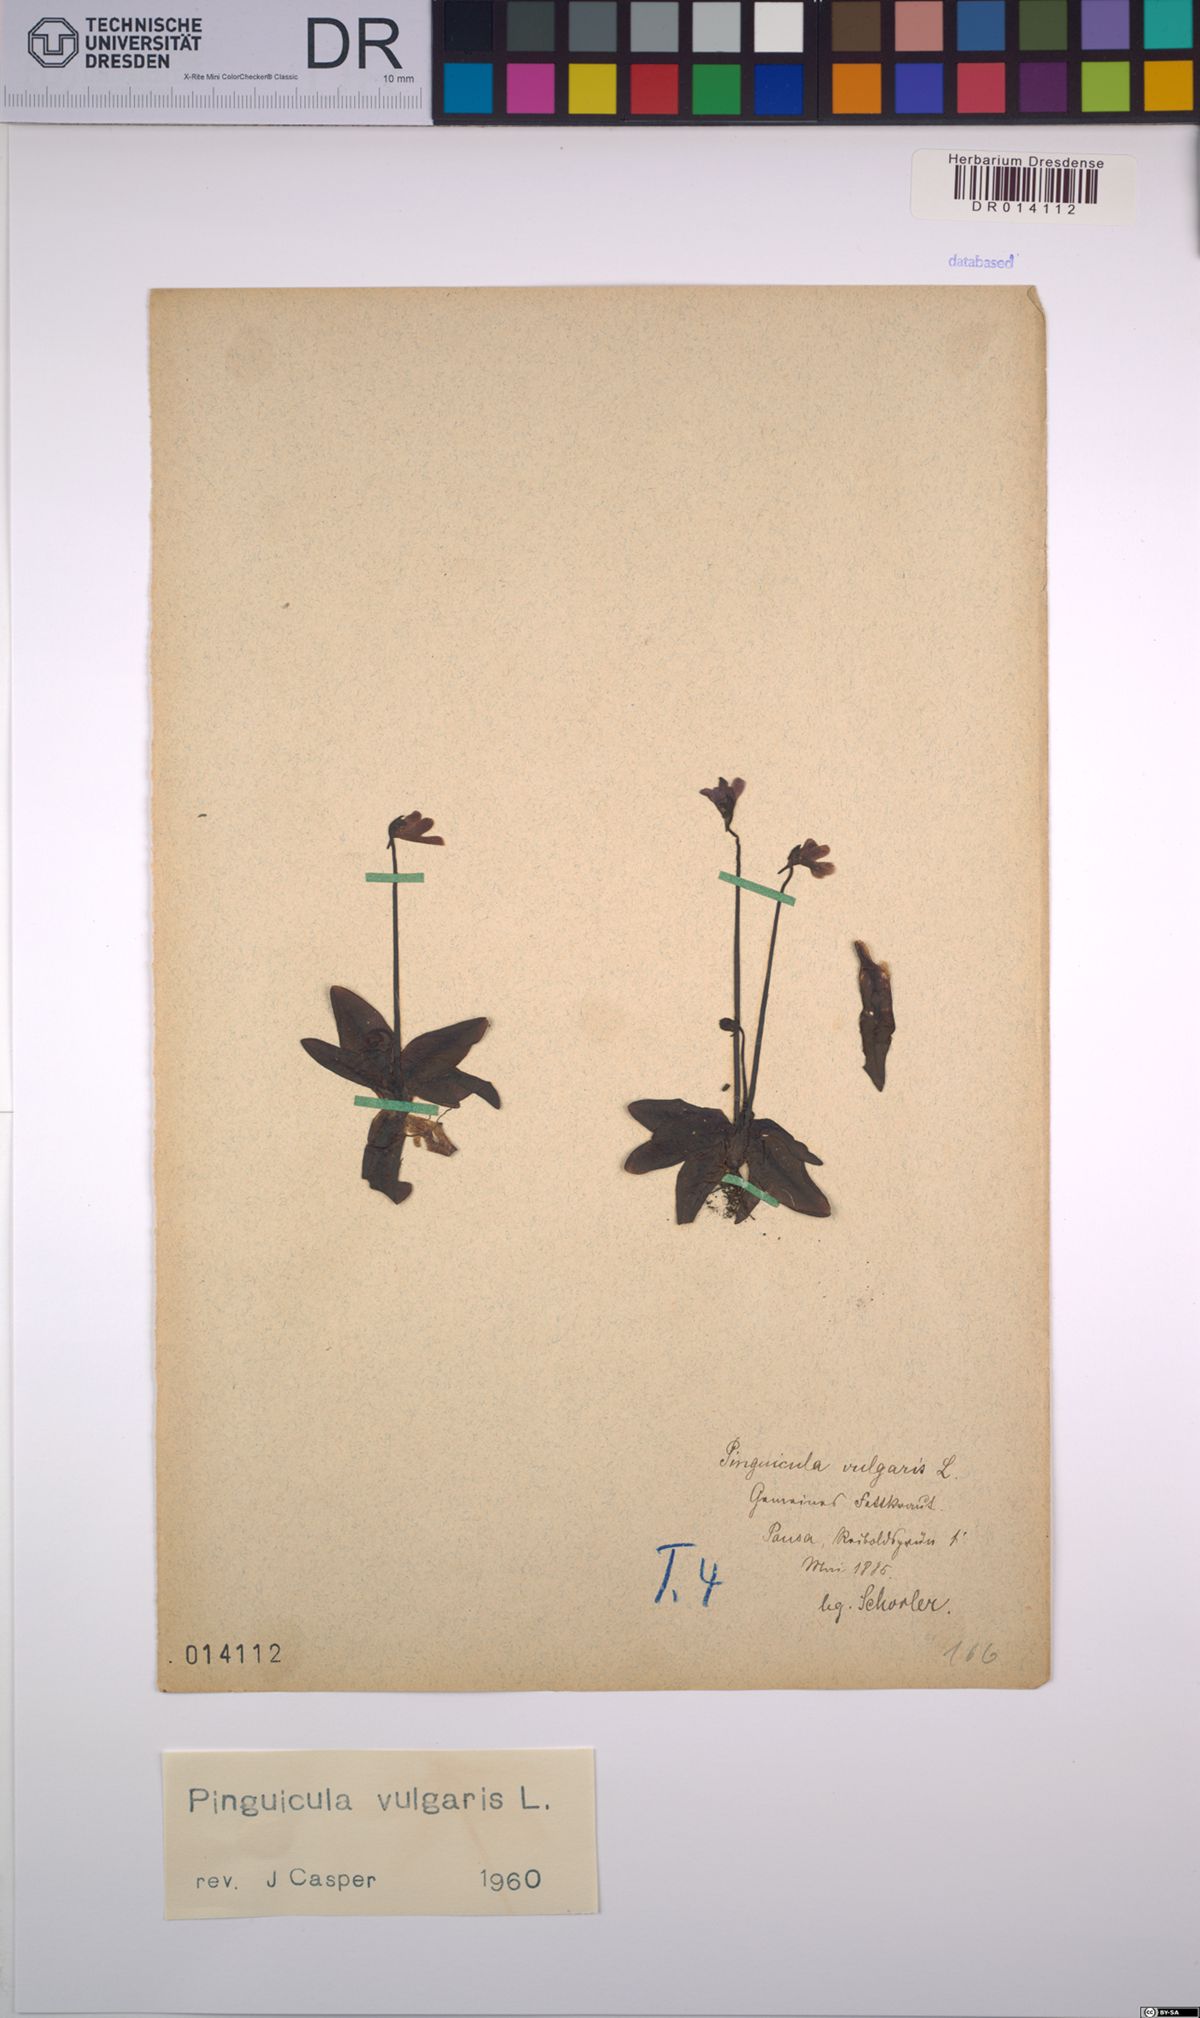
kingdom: Plantae
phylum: Tracheophyta
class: Magnoliopsida
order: Lamiales
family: Lentibulariaceae
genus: Pinguicula
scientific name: Pinguicula vulgaris
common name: Common butterwort
